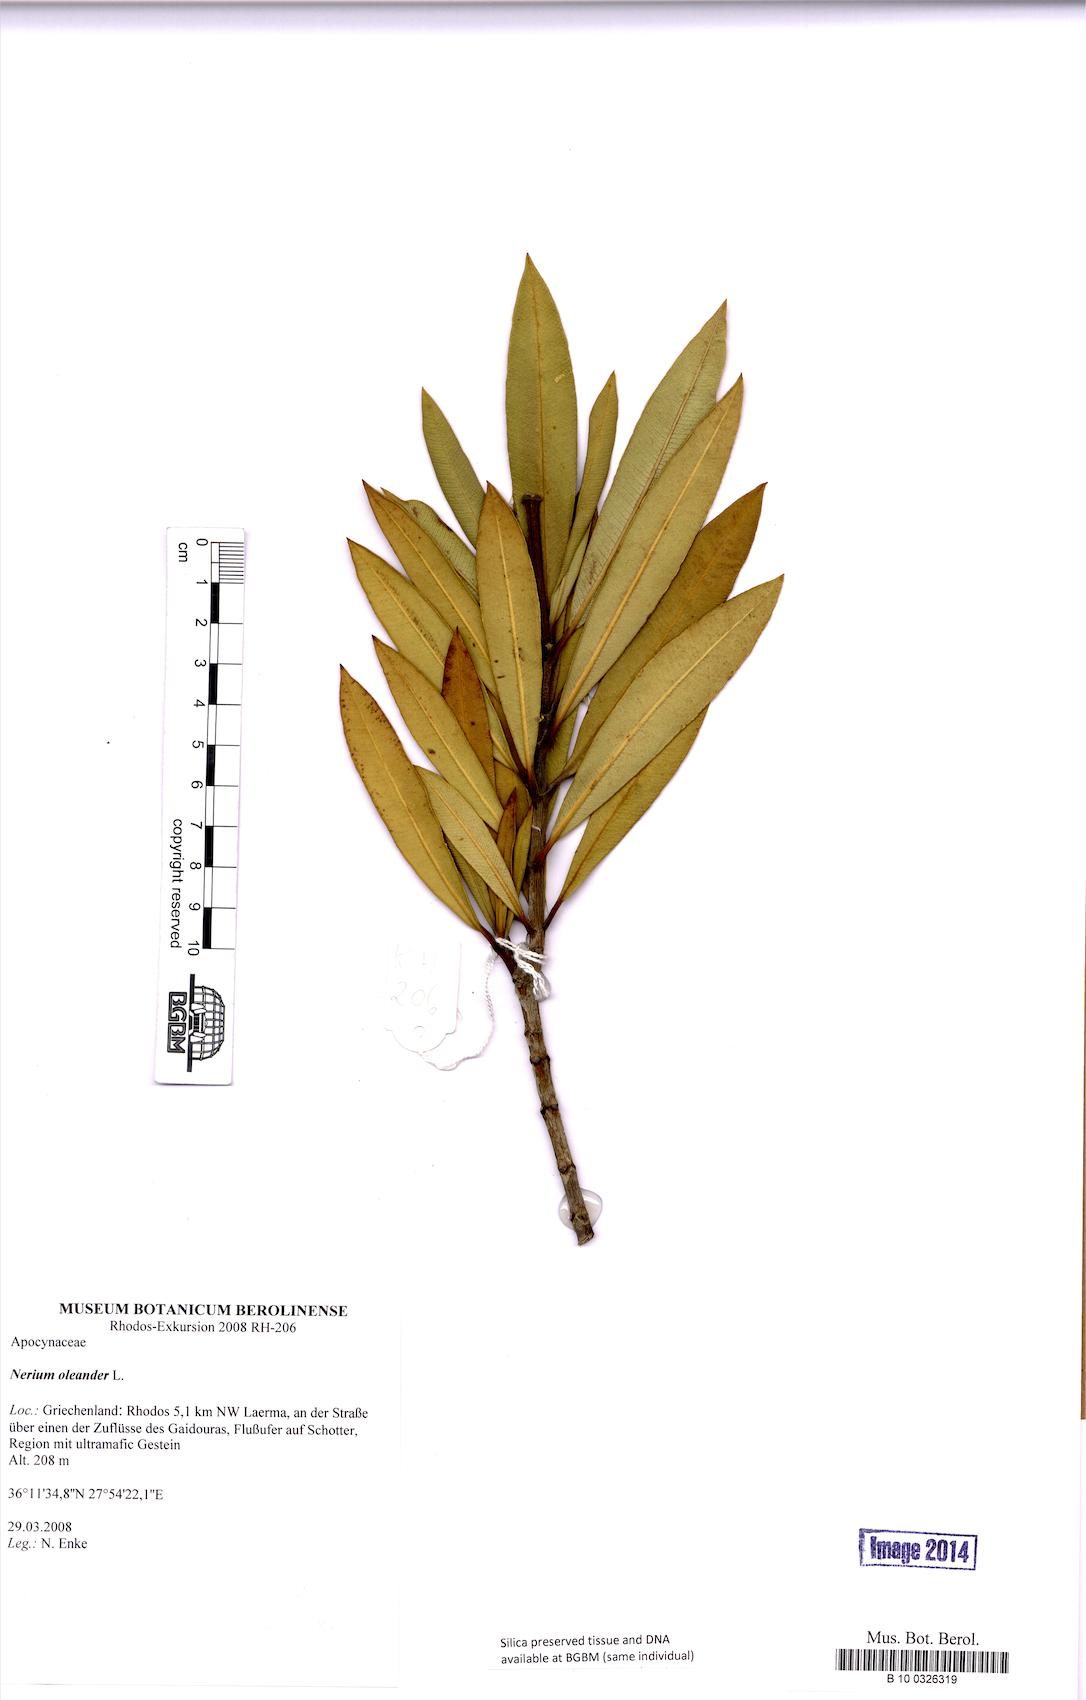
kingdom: Plantae
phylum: Tracheophyta
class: Magnoliopsida
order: Gentianales
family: Apocynaceae
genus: Nerium
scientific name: Nerium oleander
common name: Oleander
